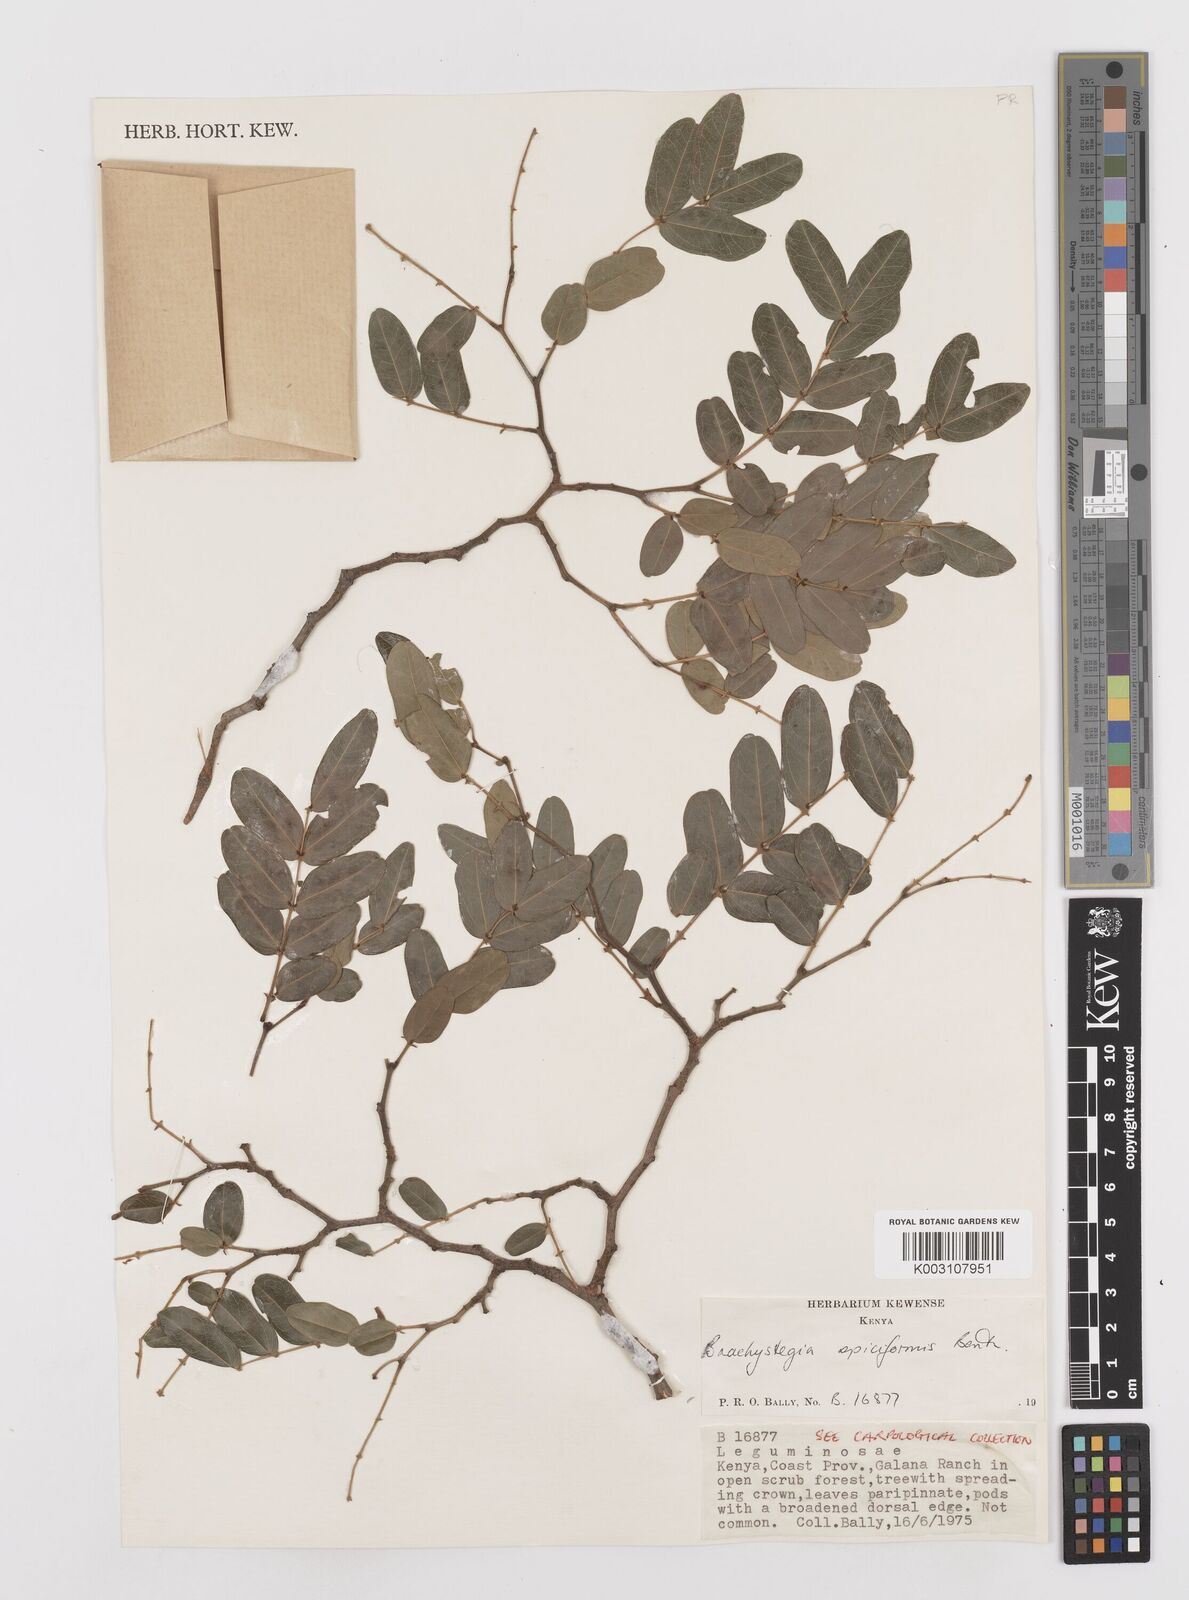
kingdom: Plantae
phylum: Tracheophyta
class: Magnoliopsida
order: Fabales
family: Fabaceae
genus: Brachystegia
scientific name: Brachystegia spiciformis
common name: Zebrawood
